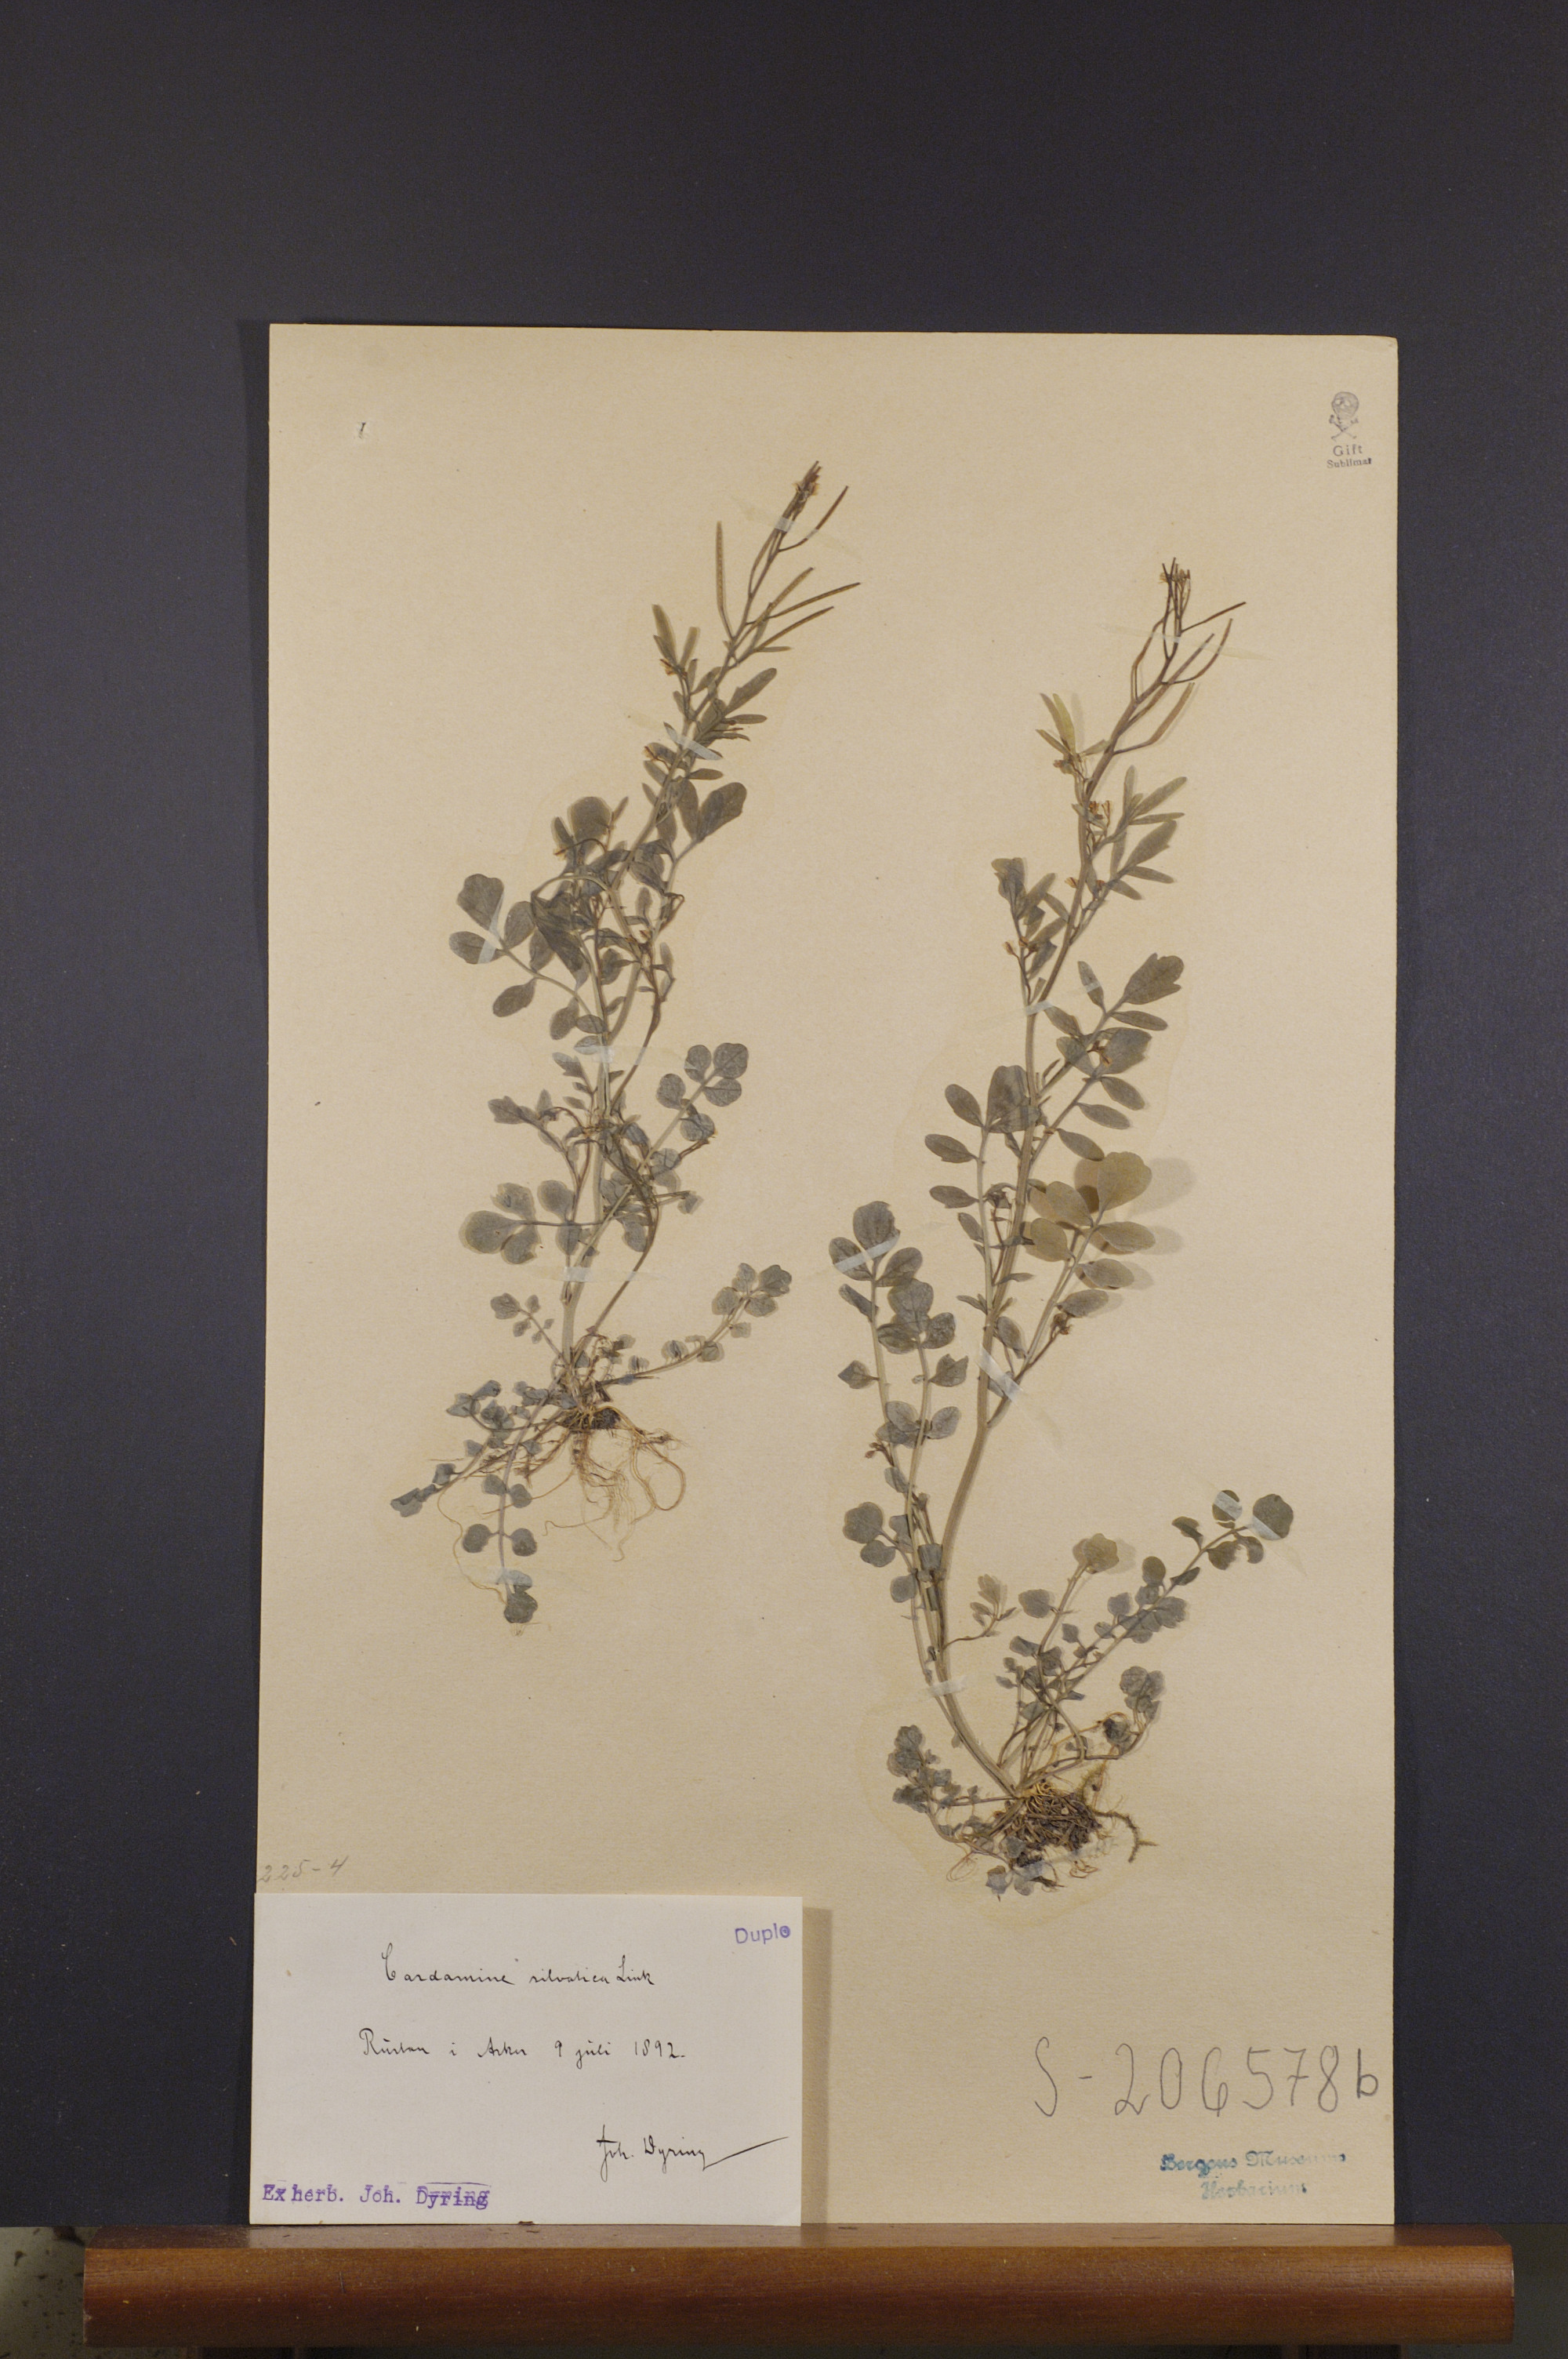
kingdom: Plantae
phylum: Tracheophyta
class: Magnoliopsida
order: Brassicales
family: Brassicaceae
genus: Cardamine
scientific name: Cardamine flexuosa
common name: Woodland bittercress
